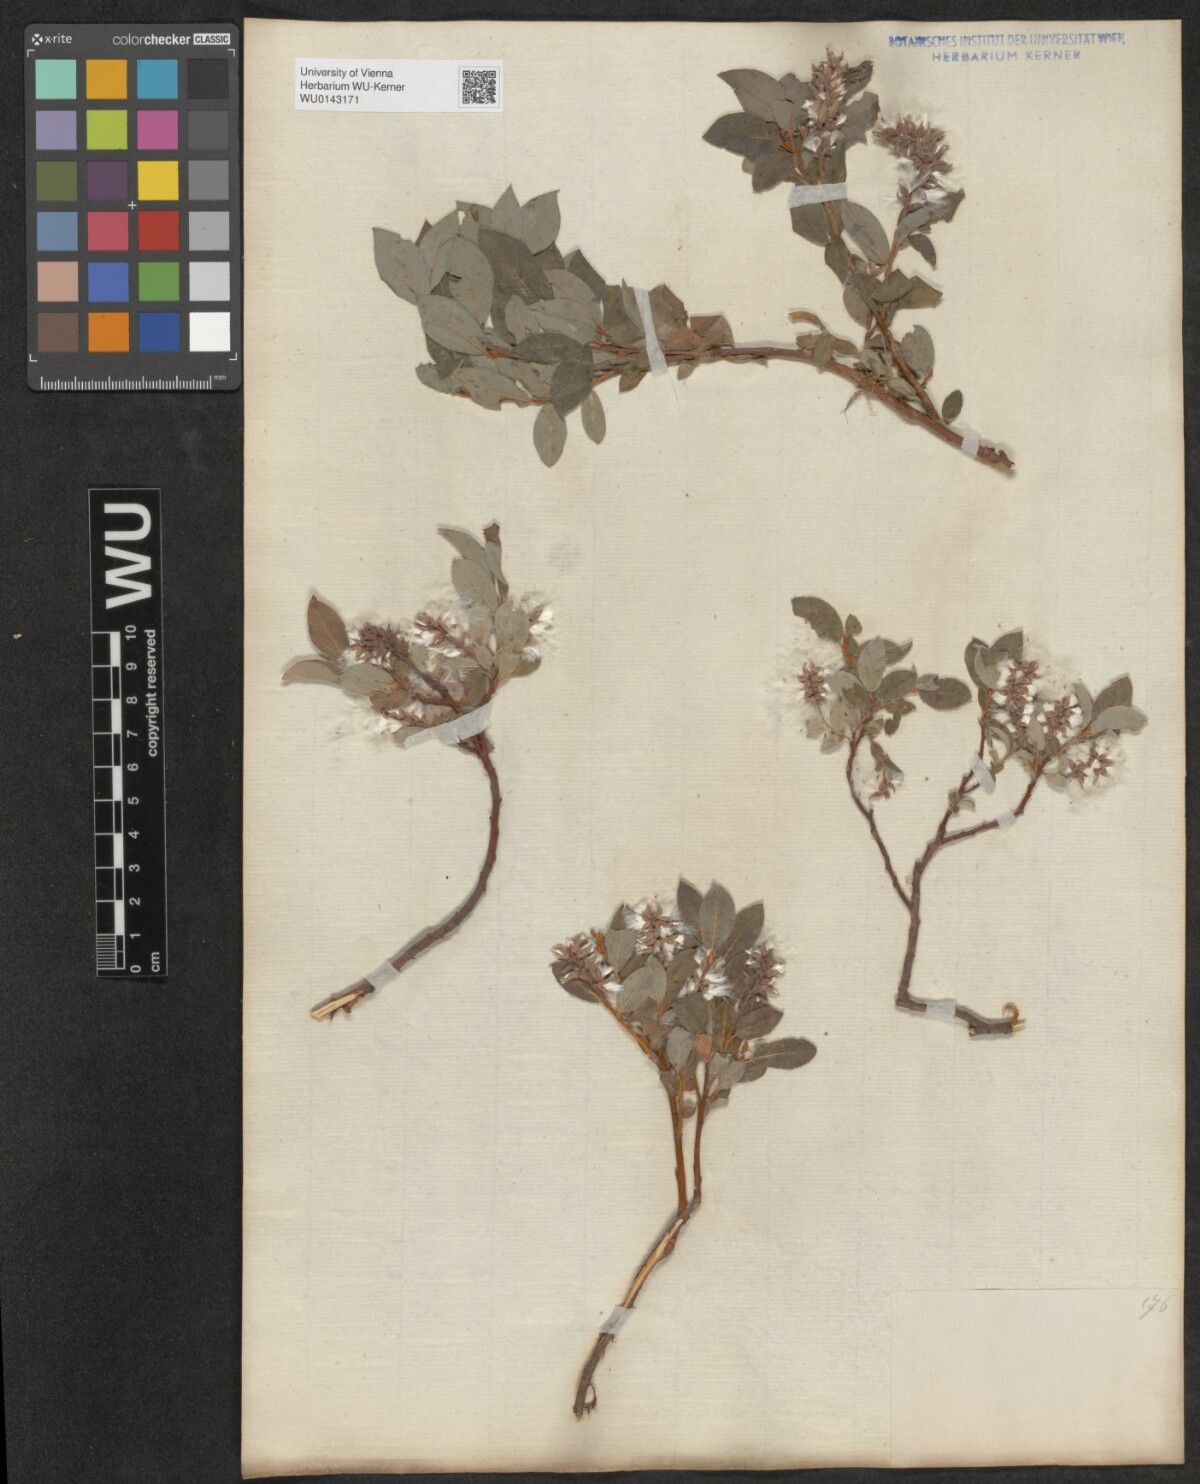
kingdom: Plantae
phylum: Tracheophyta
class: Magnoliopsida
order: Malpighiales
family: Salicaceae
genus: Salix
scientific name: Salix pyrenaica
